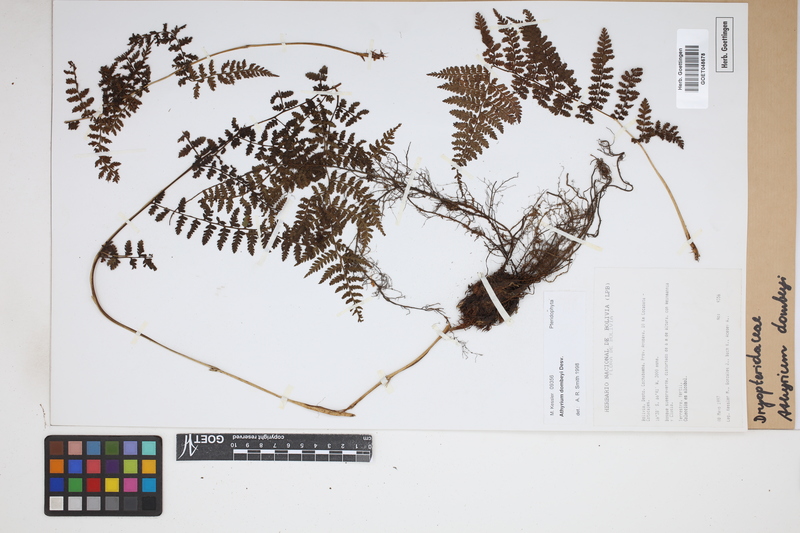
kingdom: Plantae
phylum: Tracheophyta
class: Polypodiopsida
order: Polypodiales
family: Athyriaceae
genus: Athyrium
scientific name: Athyrium dombeyi
